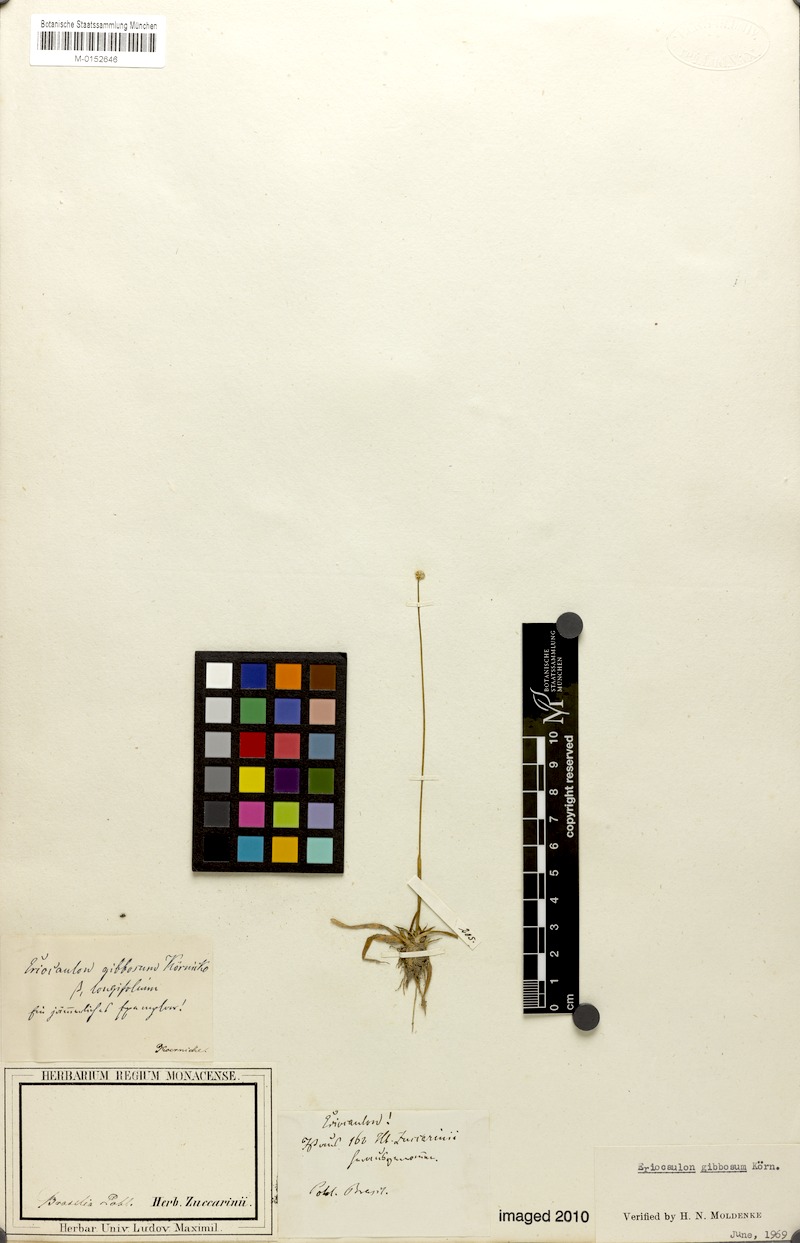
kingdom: Plantae
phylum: Tracheophyta
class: Liliopsida
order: Poales
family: Eriocaulaceae
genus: Eriocaulon
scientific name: Eriocaulon gibbosum
